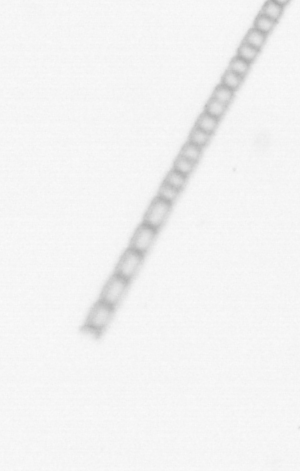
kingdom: Chromista
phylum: Ochrophyta
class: Bacillariophyceae
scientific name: Bacillariophyceae
